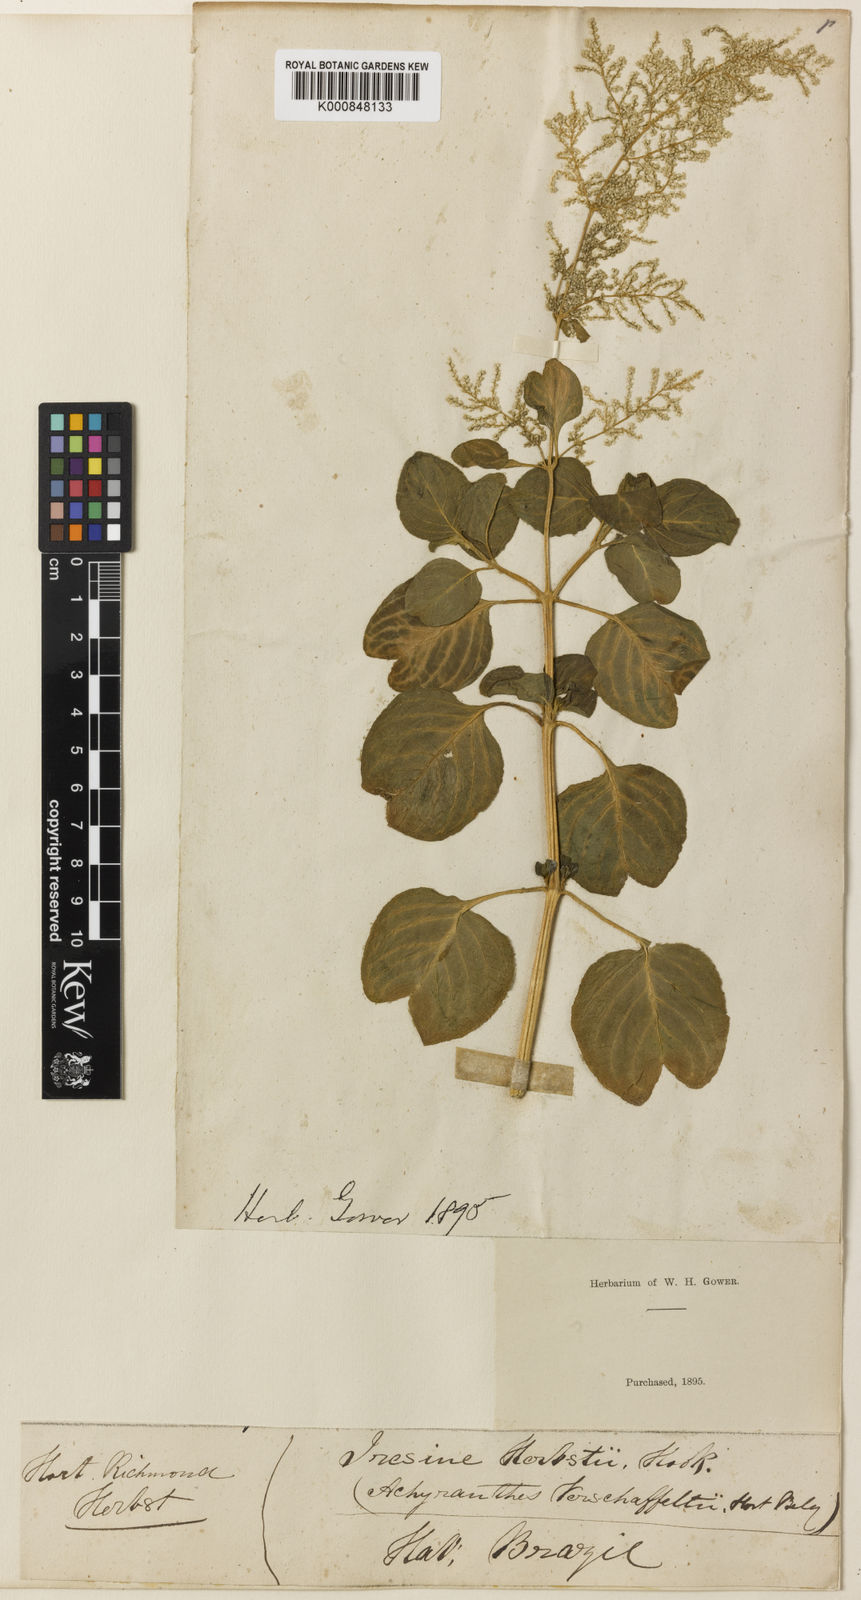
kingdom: Plantae
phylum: Tracheophyta
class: Magnoliopsida
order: Caryophyllales
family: Amaranthaceae
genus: Iresine
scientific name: Iresine diffusa
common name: Juba's-bush
